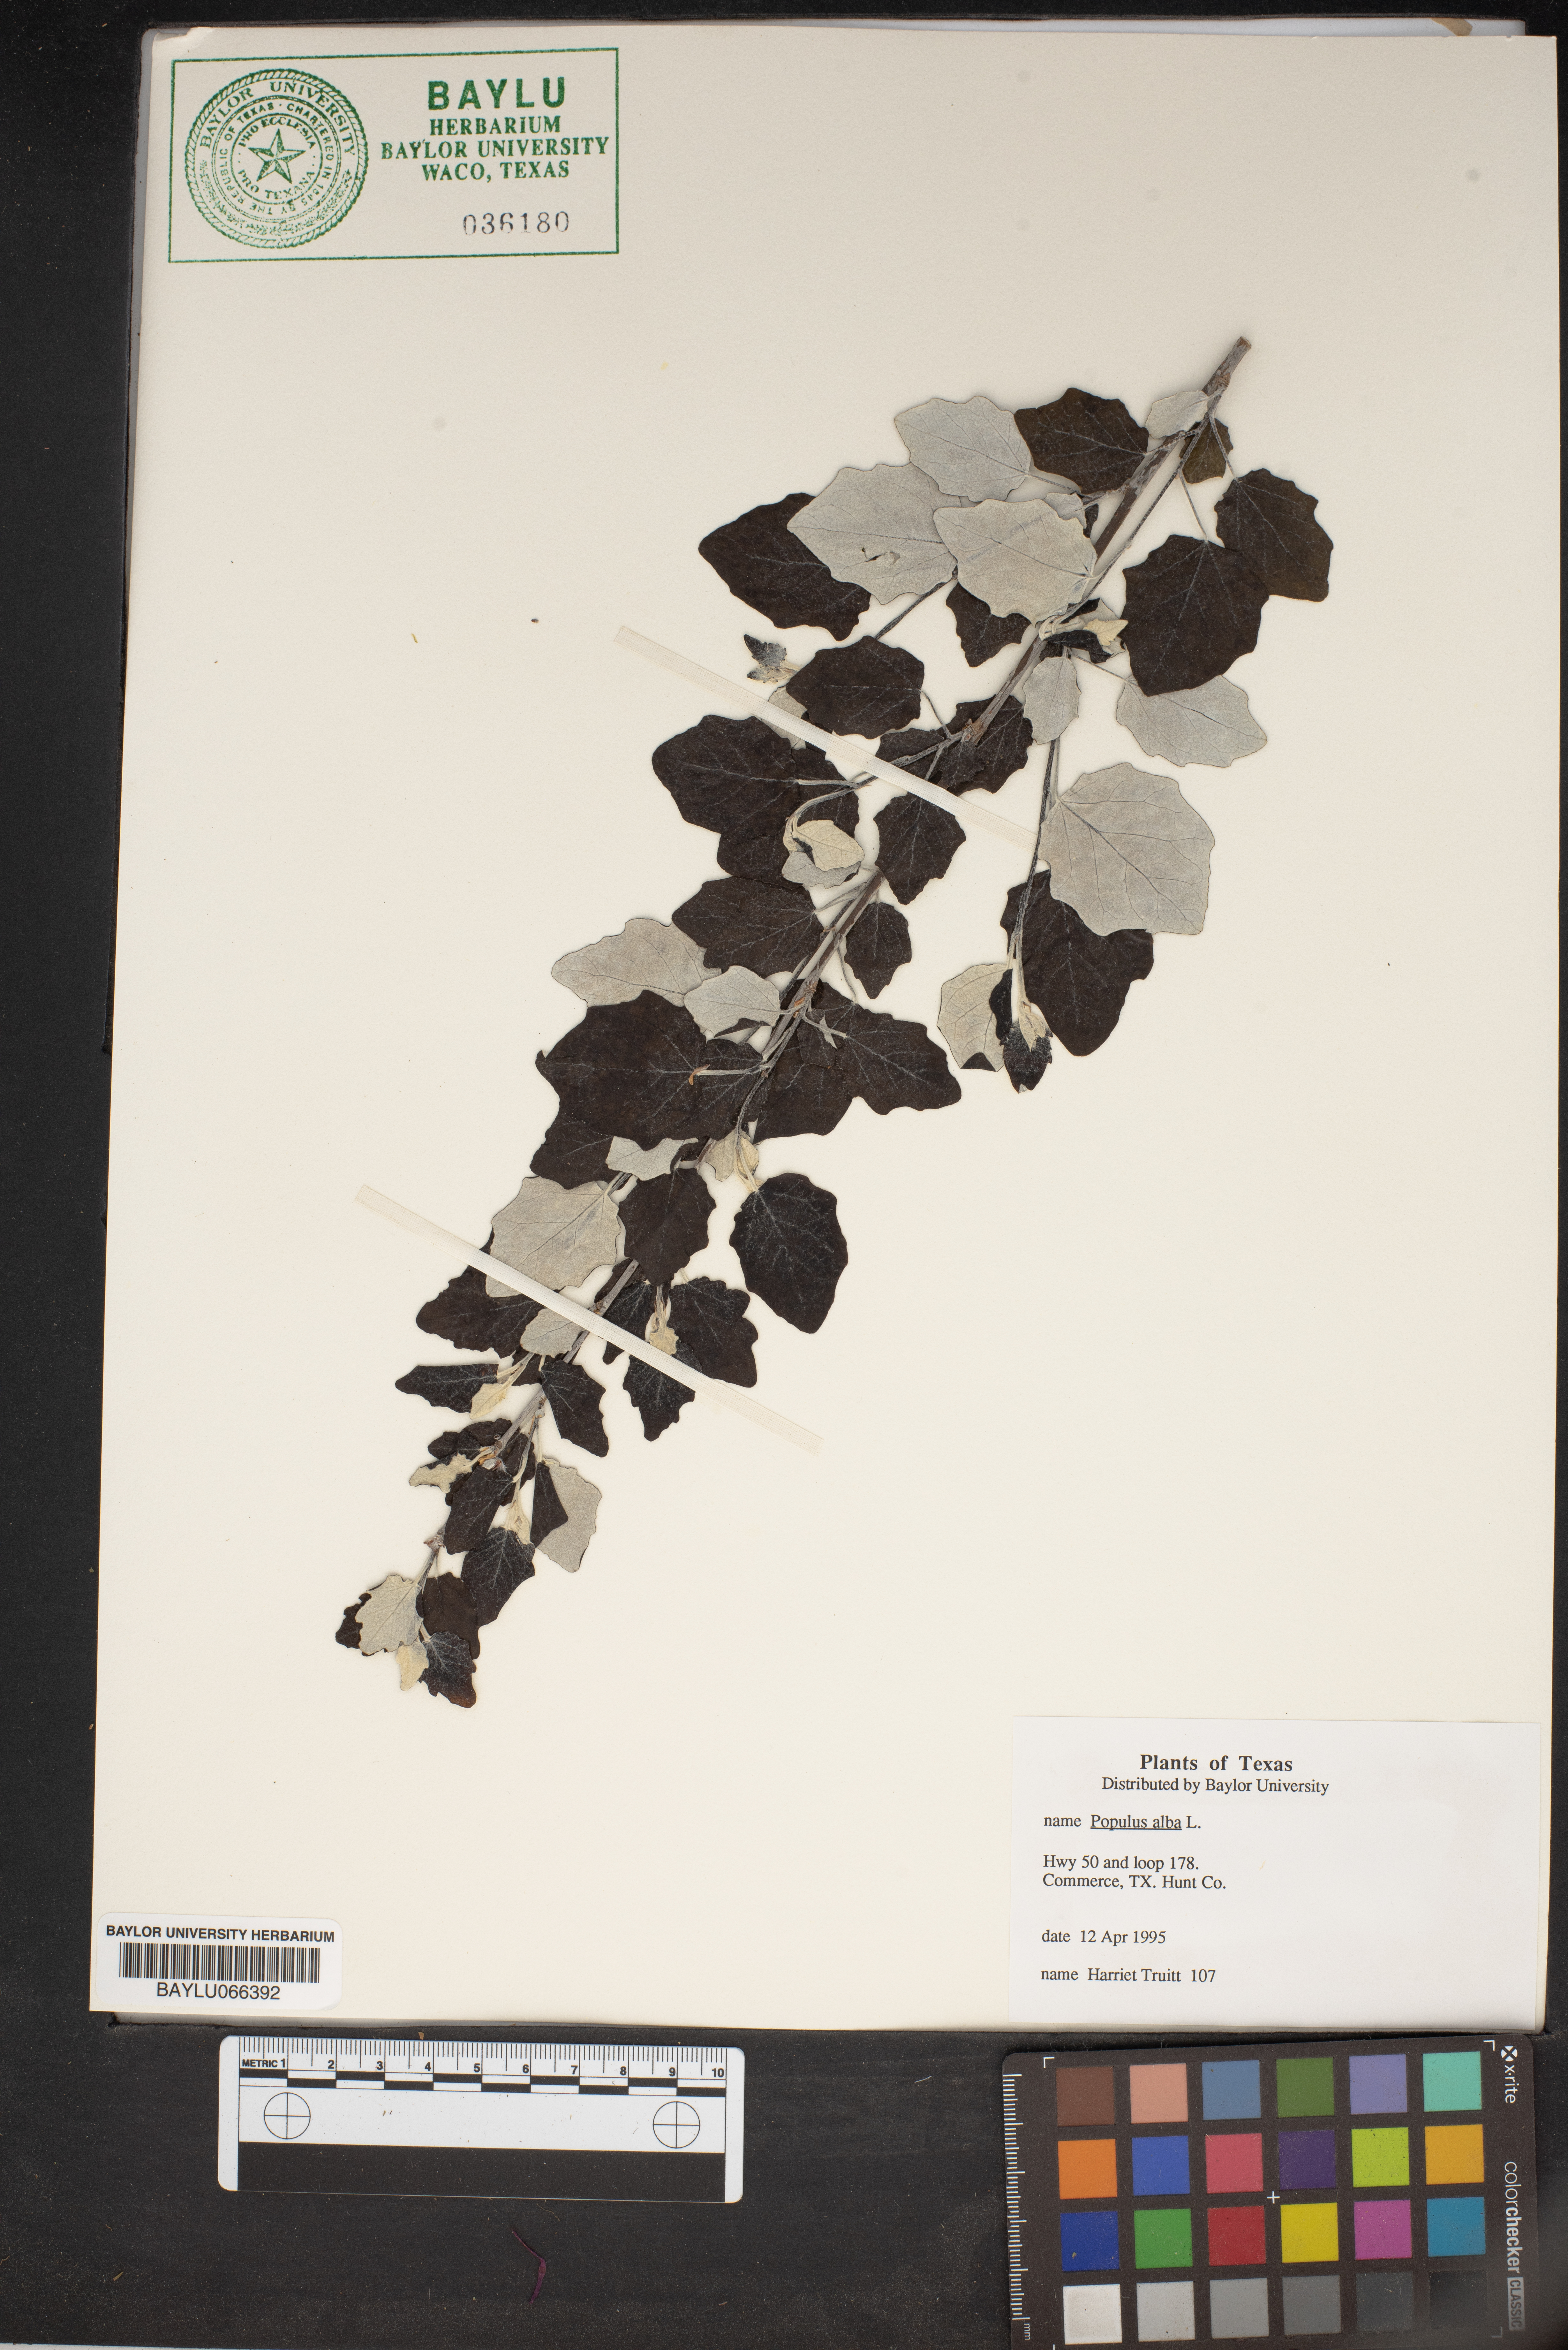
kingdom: Plantae
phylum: Tracheophyta
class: Magnoliopsida
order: Malpighiales
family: Salicaceae
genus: Populus
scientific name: Populus alba
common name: White poplar
